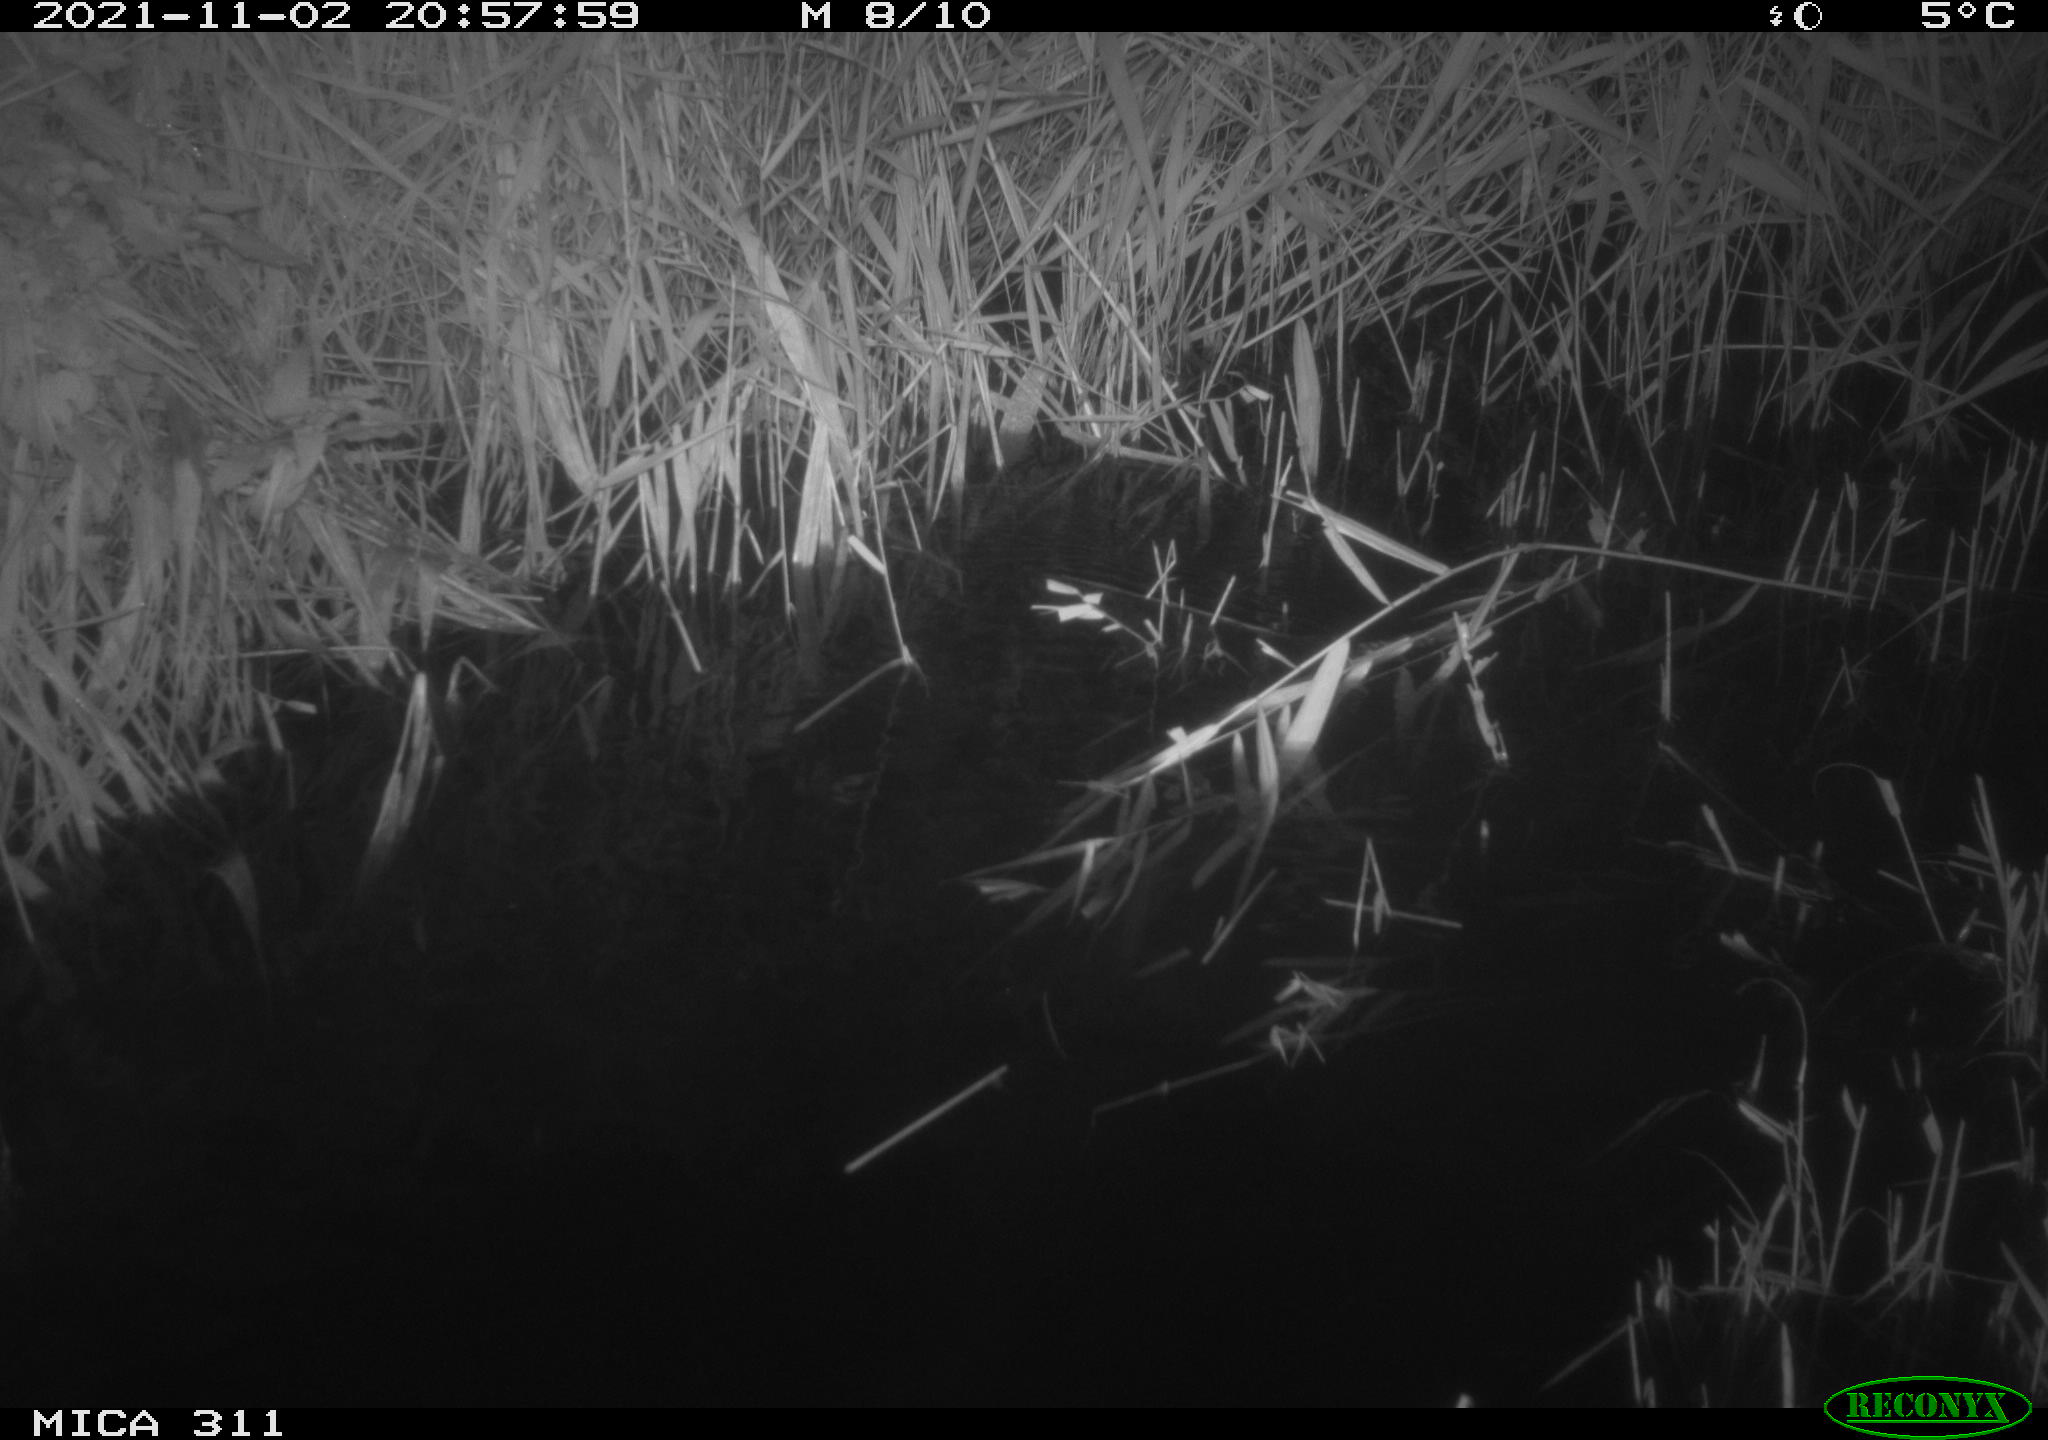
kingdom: Animalia
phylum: Chordata
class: Mammalia
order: Rodentia
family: Muridae
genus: Rattus
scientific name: Rattus norvegicus
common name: Brown rat
